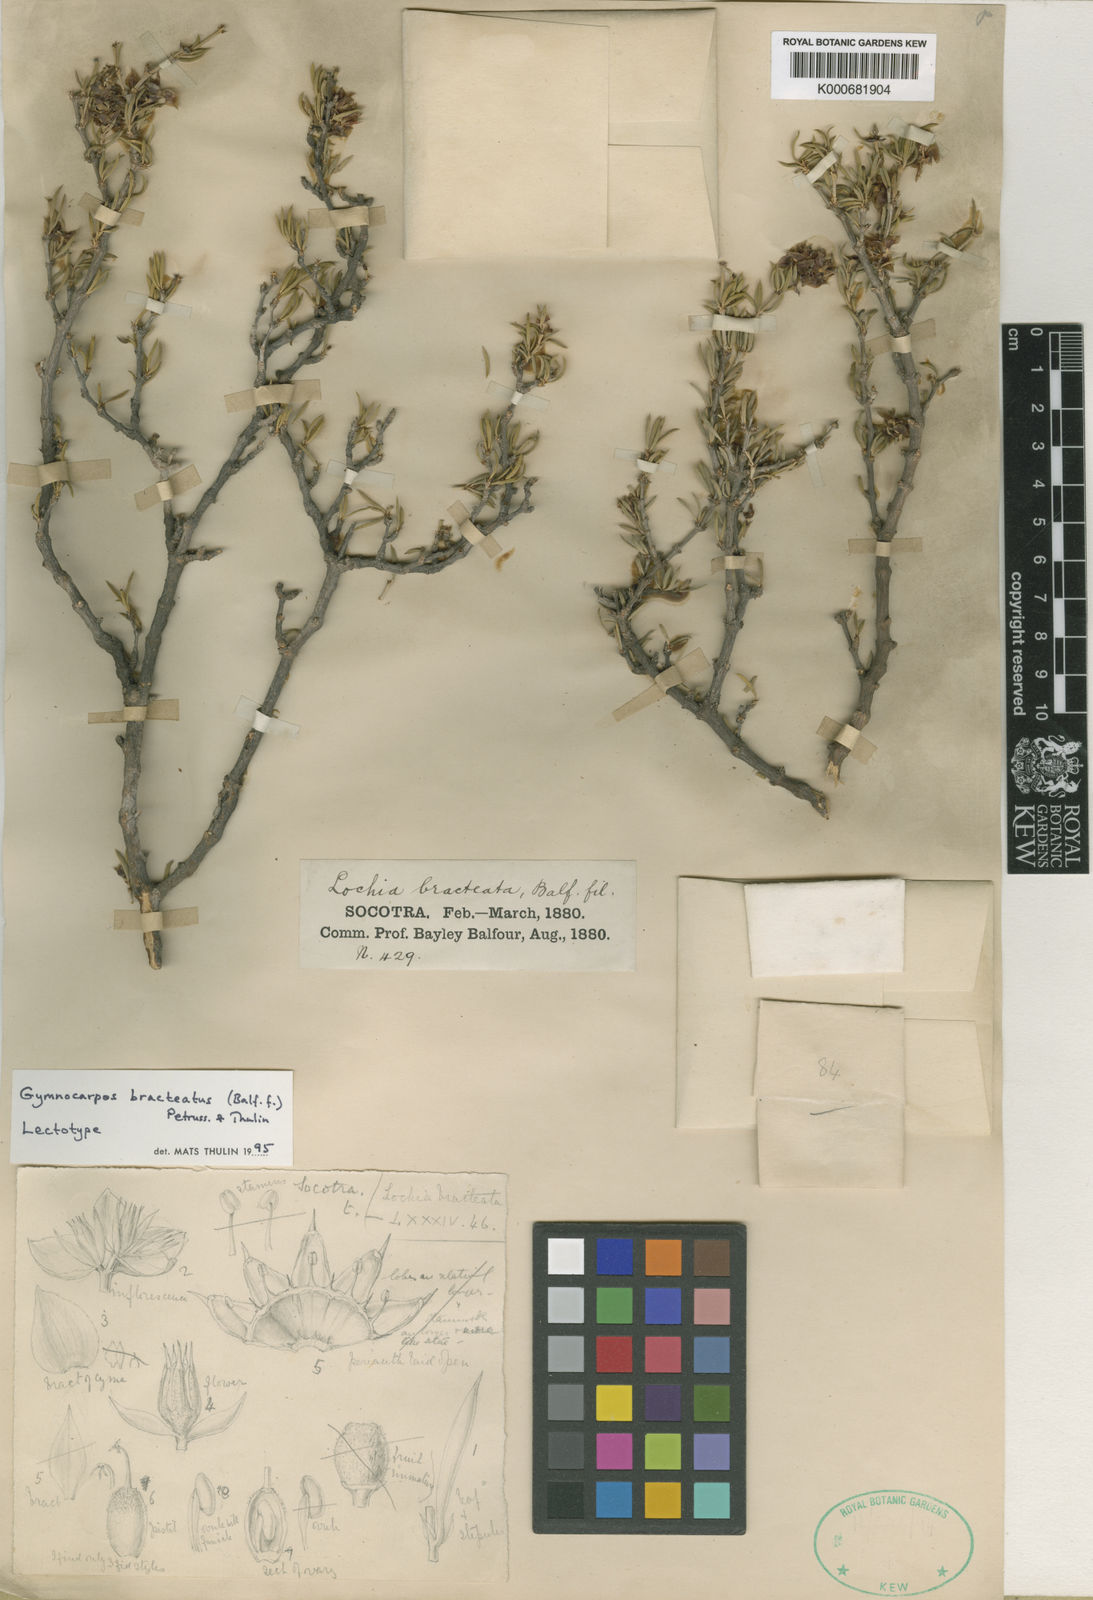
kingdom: Plantae
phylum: Tracheophyta
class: Magnoliopsida
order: Caryophyllales
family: Caryophyllaceae
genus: Gymnocarpos
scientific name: Gymnocarpos bracteatus
